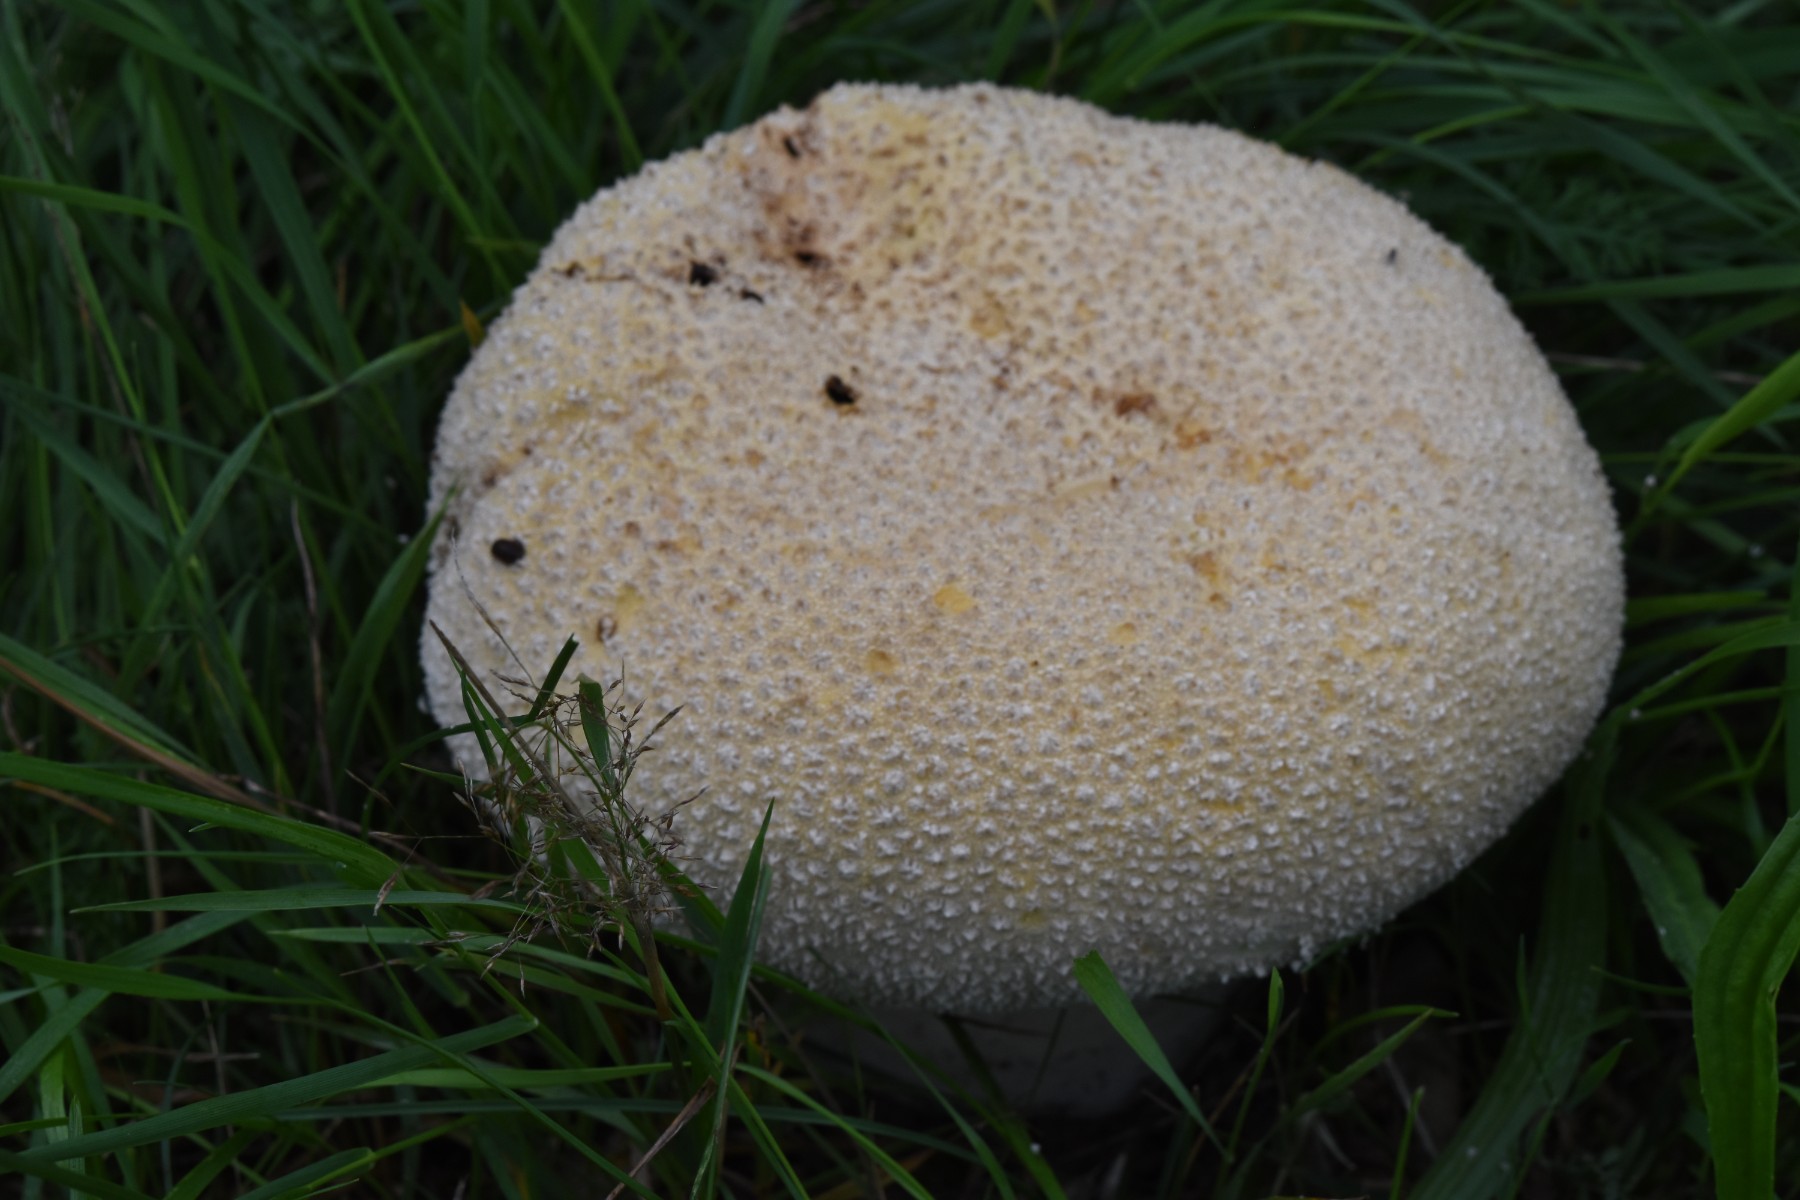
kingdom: Fungi
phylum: Basidiomycota
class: Agaricomycetes
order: Agaricales
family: Lycoperdaceae
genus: Bovistella
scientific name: Bovistella utriformis
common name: skællet støvbold
